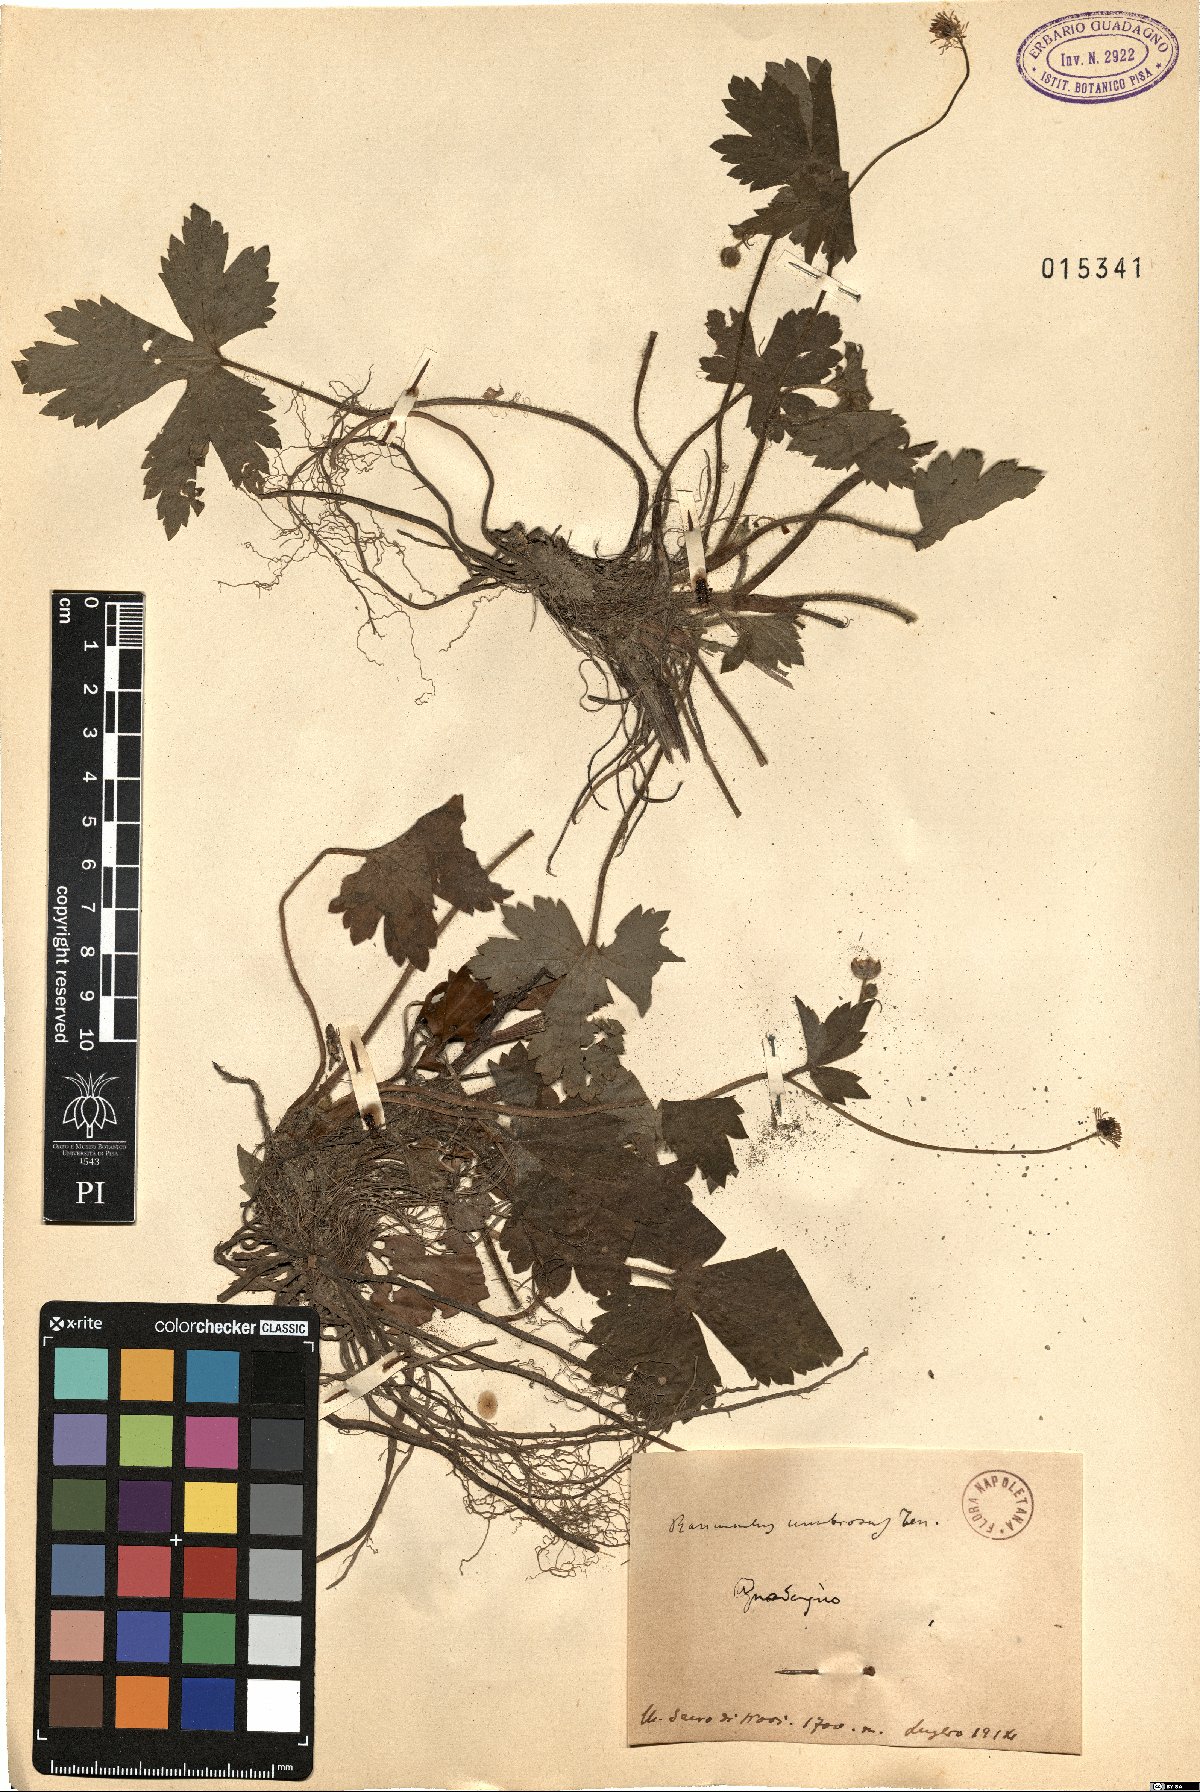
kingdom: Plantae
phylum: Tracheophyta
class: Magnoliopsida
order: Ranunculales
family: Ranunculaceae
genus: Ranunculus
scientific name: Ranunculus lanuginosus
